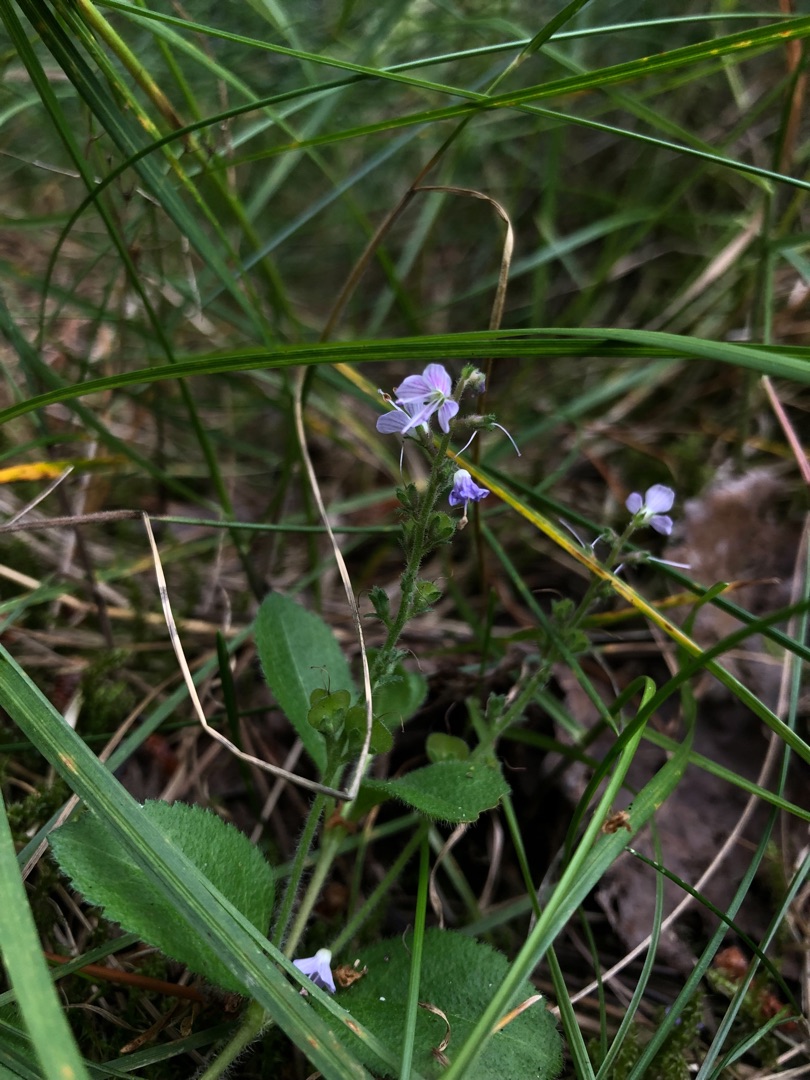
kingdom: Plantae
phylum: Tracheophyta
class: Magnoliopsida
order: Lamiales
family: Plantaginaceae
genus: Veronica
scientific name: Veronica officinalis
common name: Læge-ærenpris
